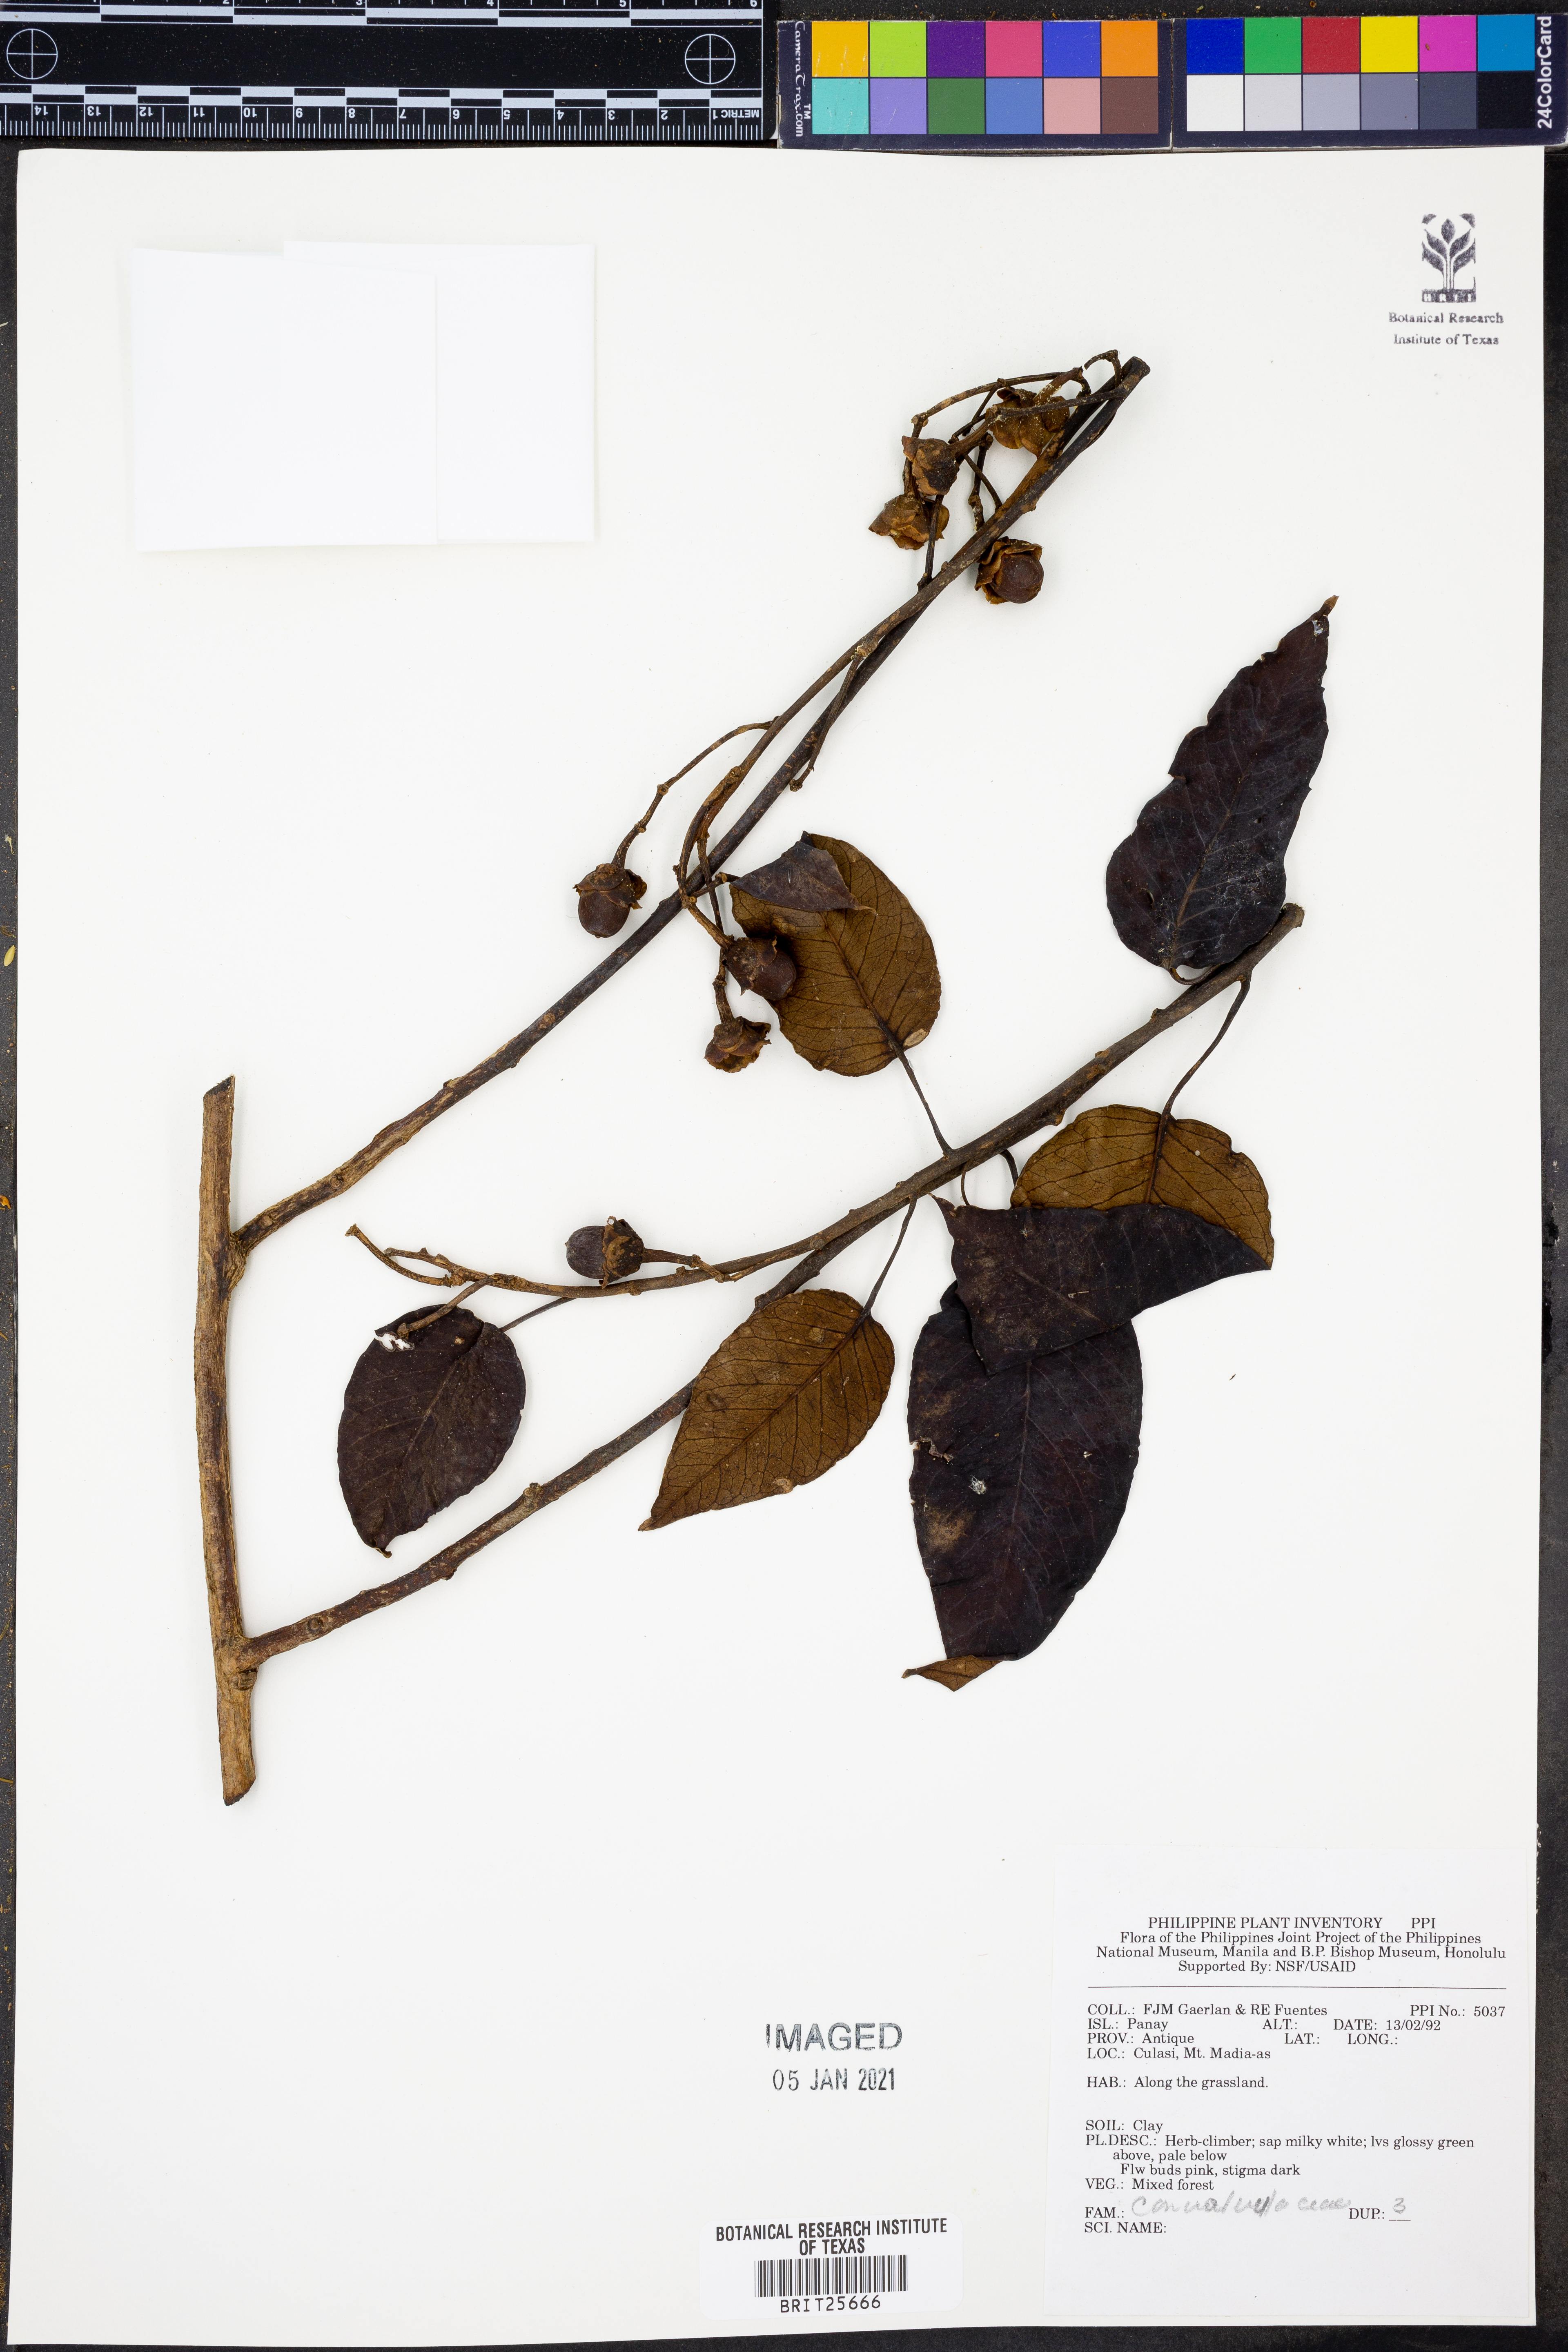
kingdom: Plantae
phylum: Tracheophyta
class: Magnoliopsida
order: Solanales
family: Convolvulaceae
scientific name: Convolvulaceae
